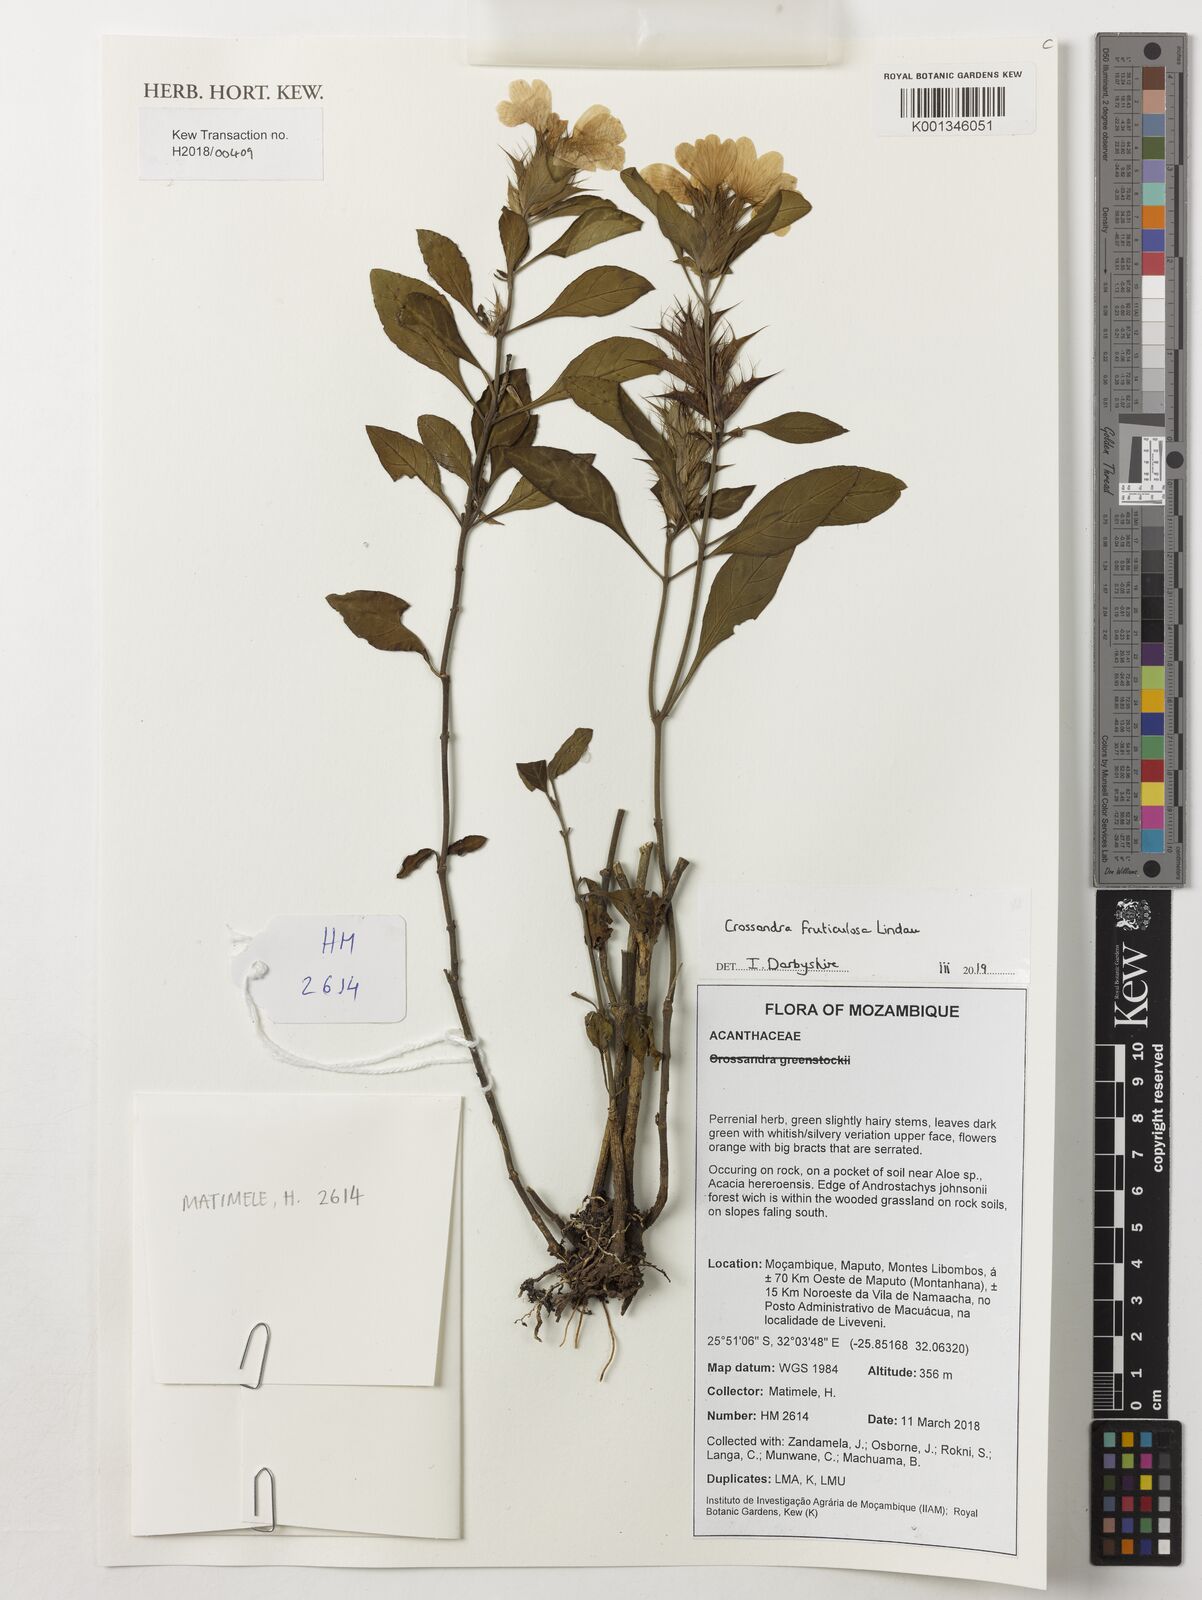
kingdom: Plantae
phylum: Tracheophyta
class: Magnoliopsida
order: Lamiales
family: Acanthaceae
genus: Crossandra
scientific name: Crossandra fruticulosa
